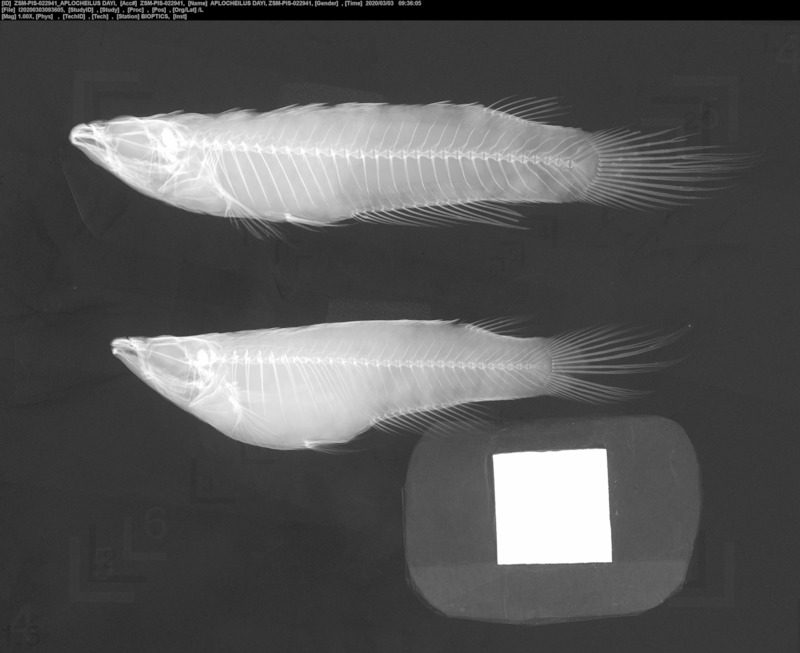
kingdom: Animalia
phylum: Chordata
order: Cyprinodontiformes
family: Aplocheilidae
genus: Aplocheilus
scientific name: Aplocheilus dayi
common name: Day's killifish
